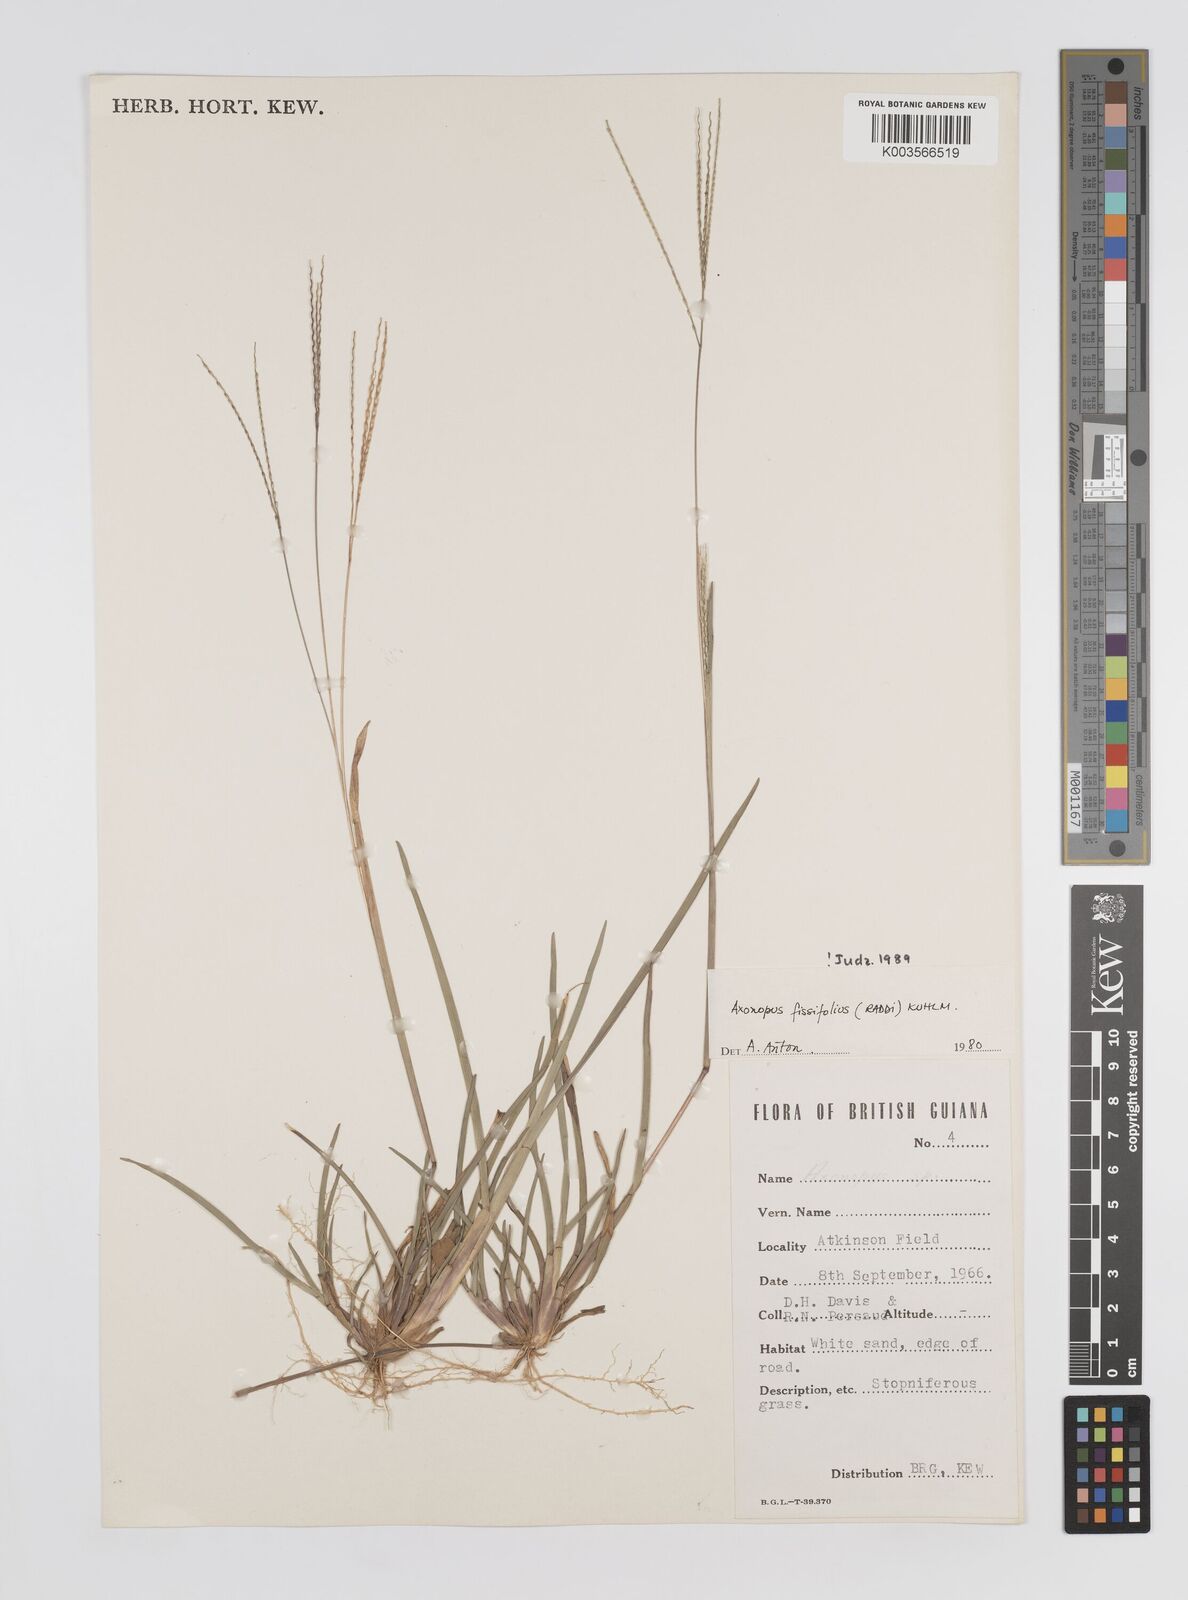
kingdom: Plantae
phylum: Tracheophyta
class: Liliopsida
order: Poales
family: Poaceae
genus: Axonopus
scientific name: Axonopus fissifolius
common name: Common carpetgrass
